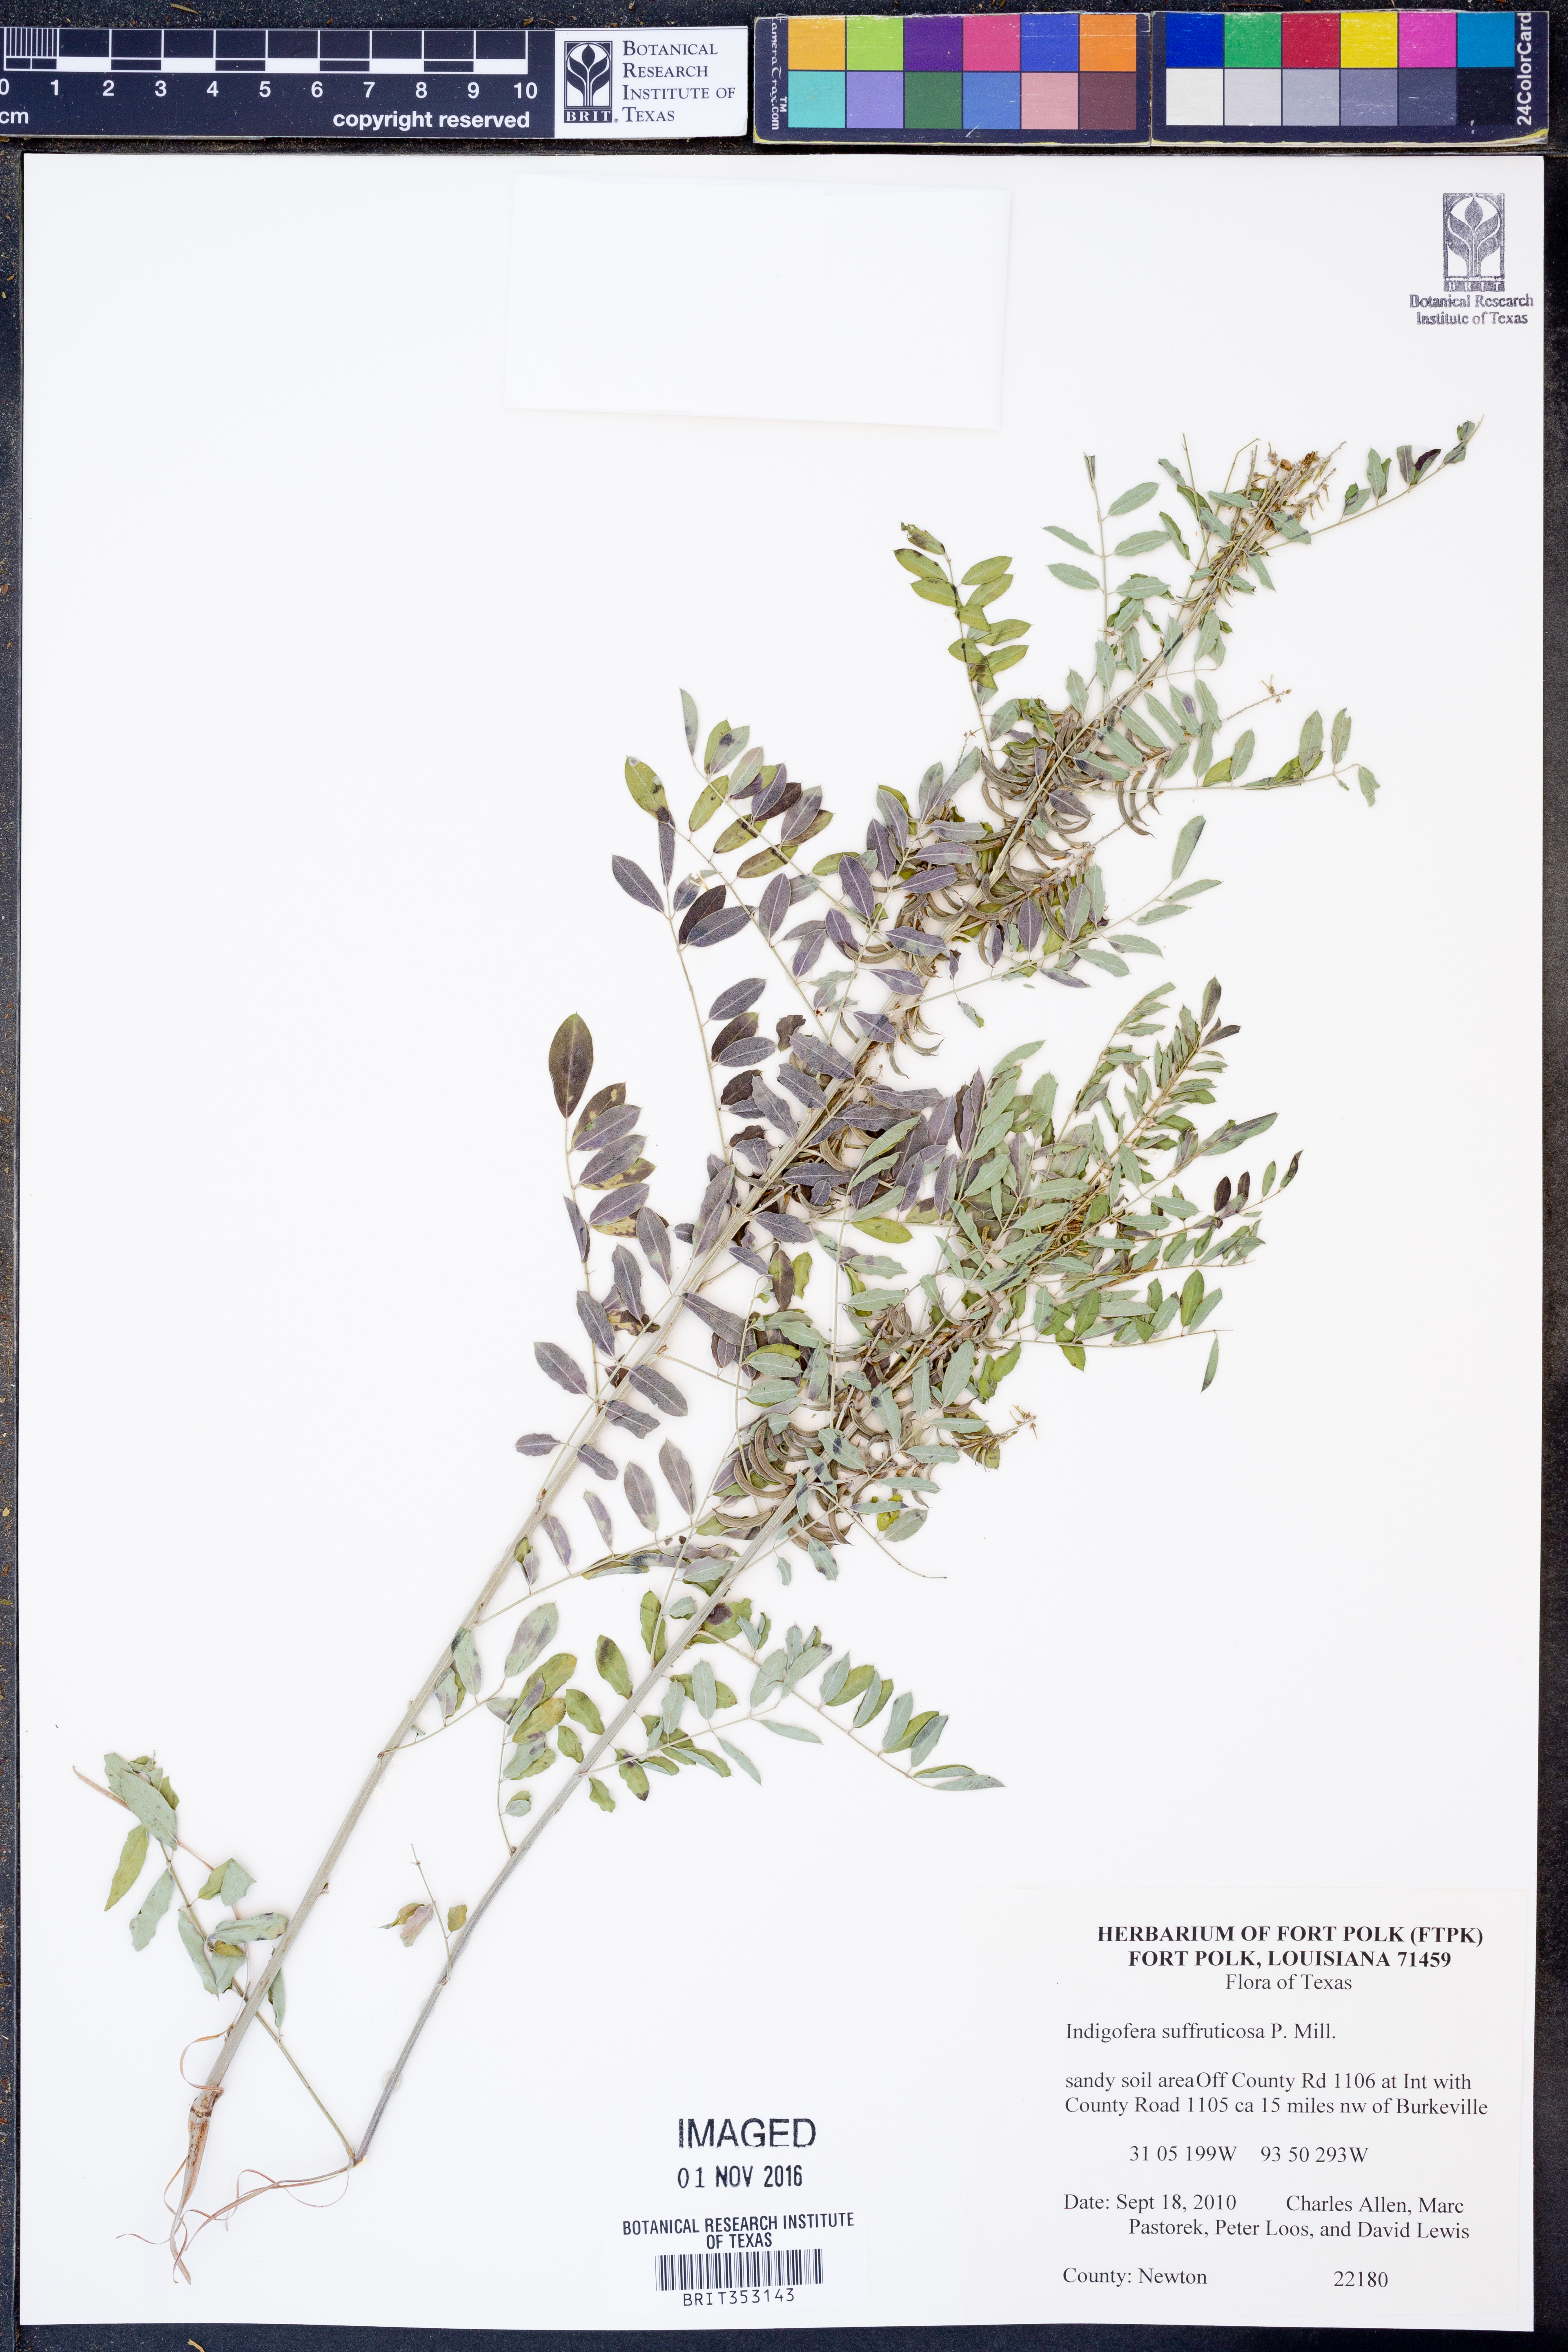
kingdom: Plantae
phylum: Tracheophyta
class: Magnoliopsida
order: Fabales
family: Fabaceae
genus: Indigofera
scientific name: Indigofera suffruticosa
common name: Anil de pasto
